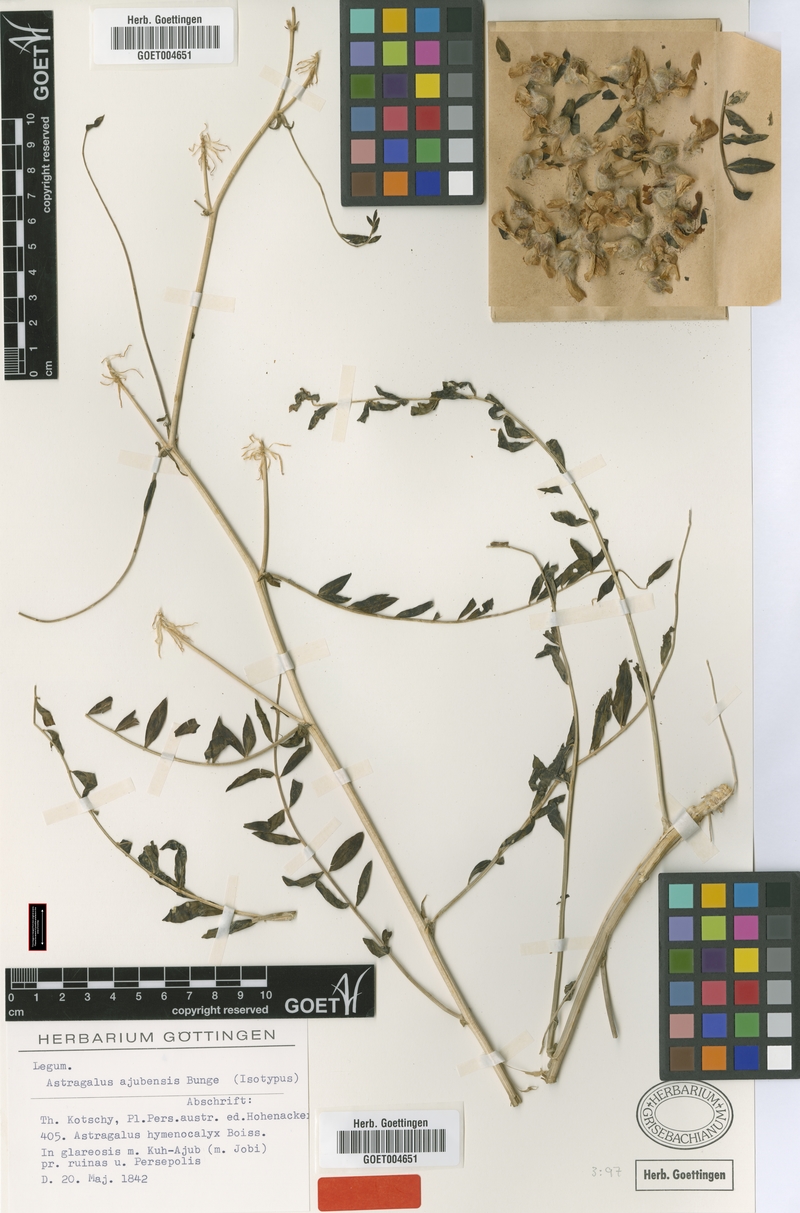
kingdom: Plantae
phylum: Tracheophyta
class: Magnoliopsida
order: Fabales
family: Fabaceae
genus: Astragalus
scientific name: Astragalus macrocephalus
